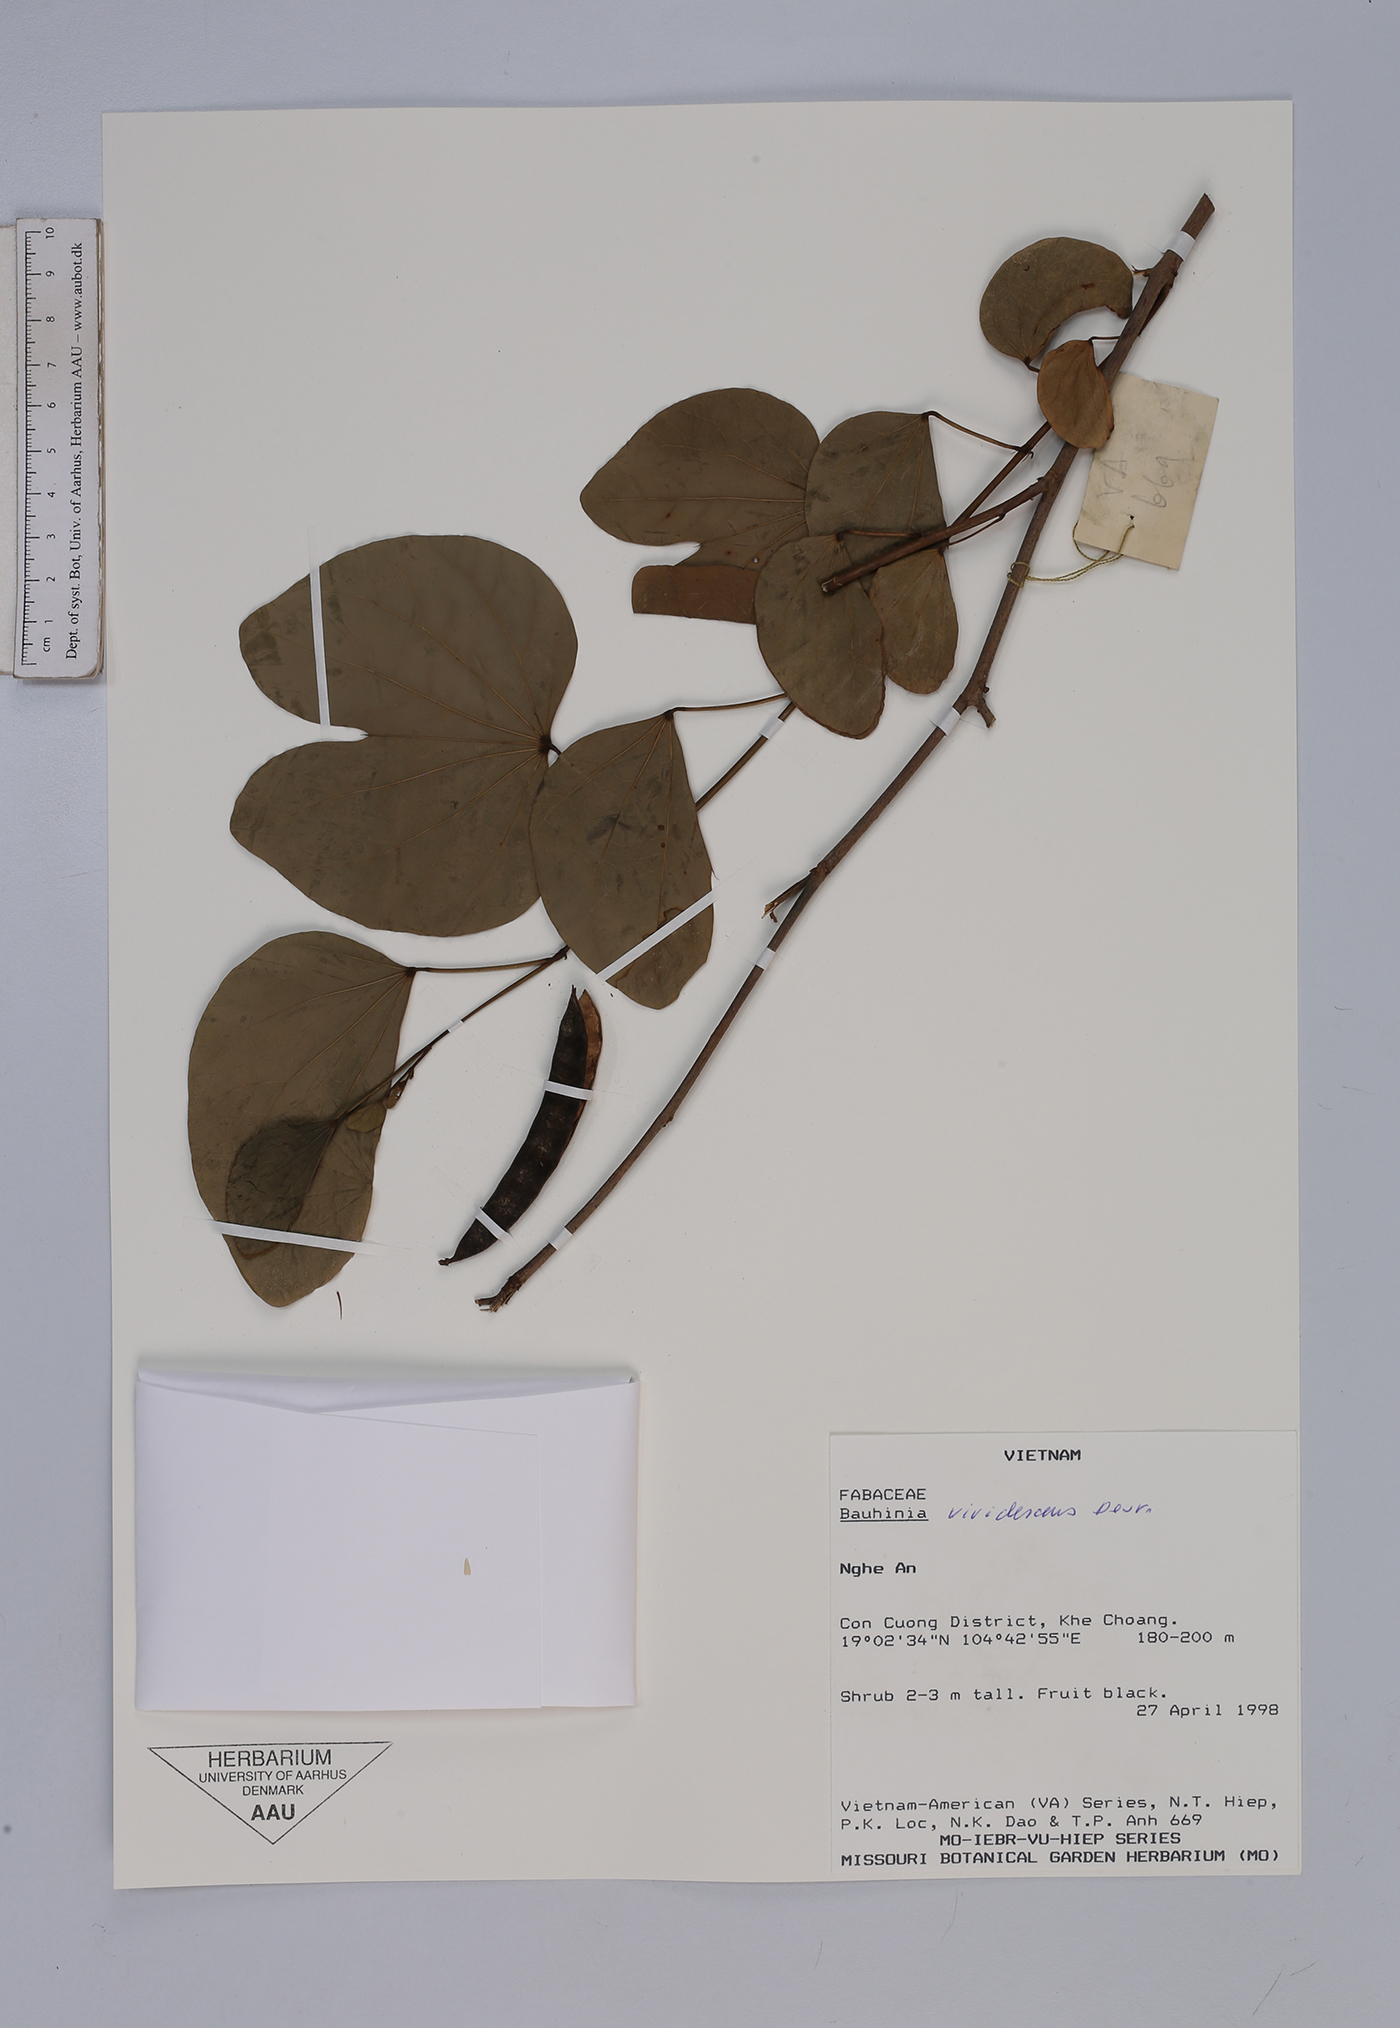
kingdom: Plantae
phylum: Tracheophyta
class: Magnoliopsida
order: Fabales
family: Fabaceae
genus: Bauhinia
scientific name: Bauhinia viridescens
